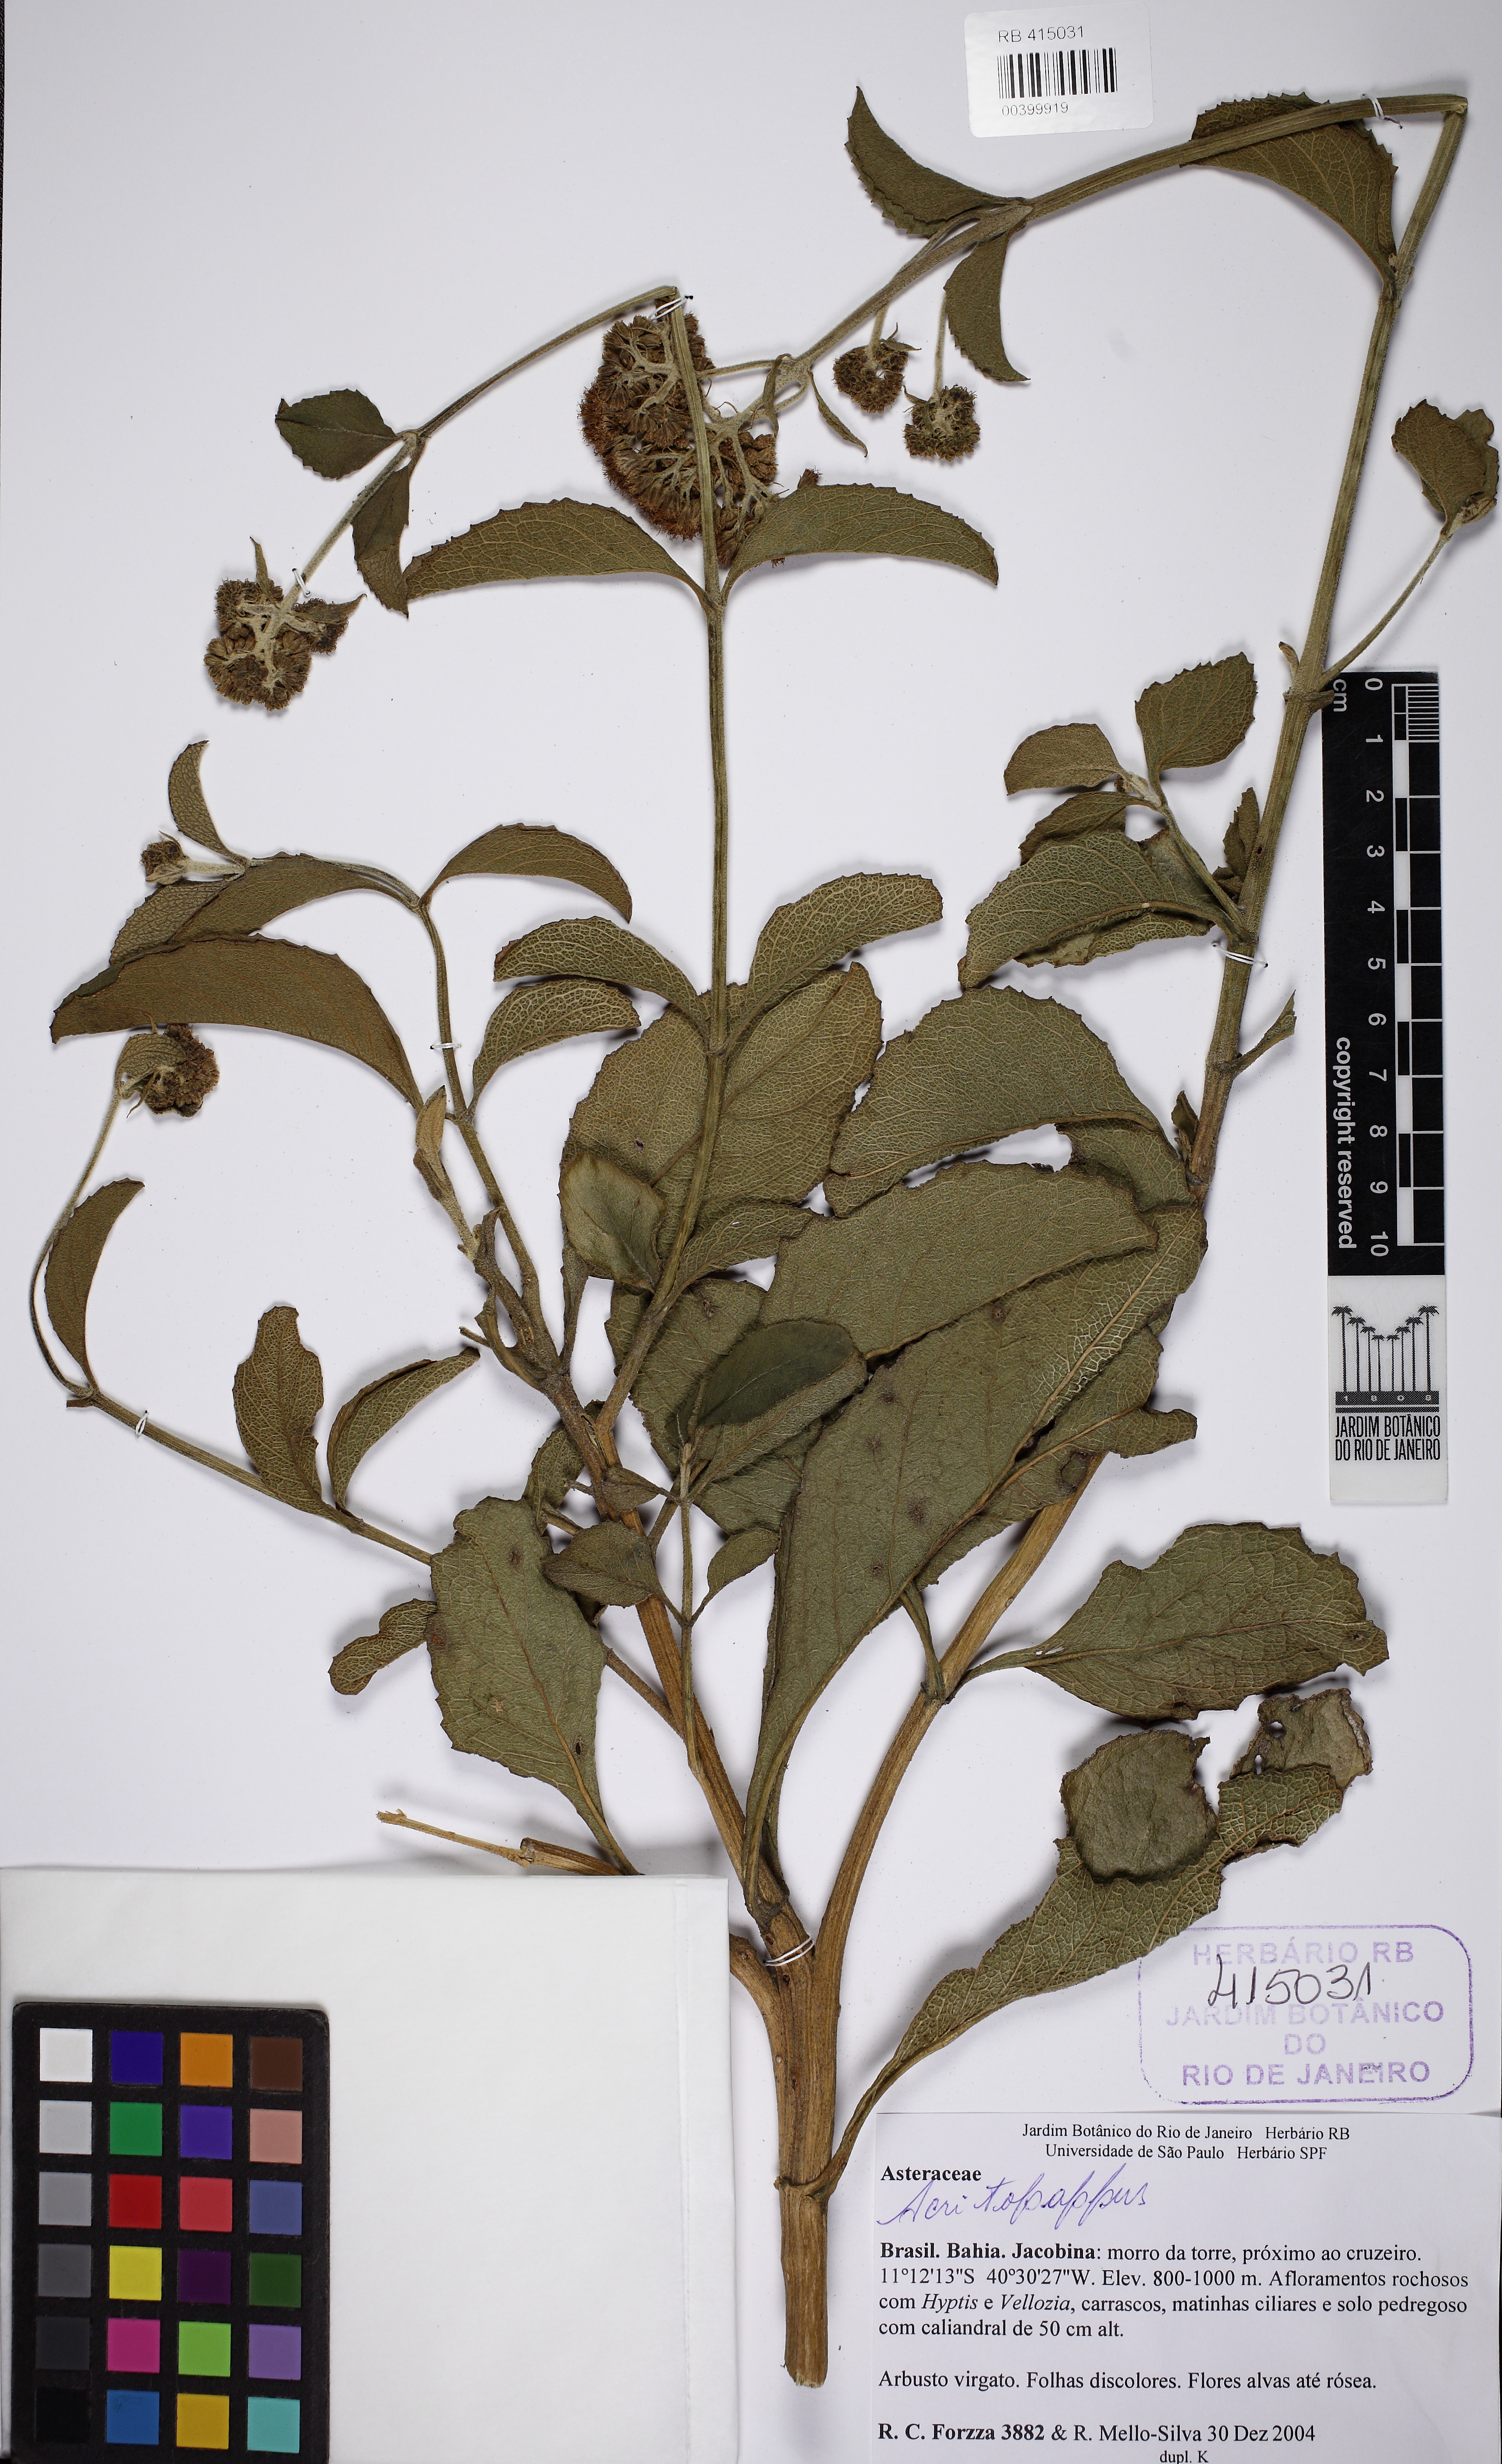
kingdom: Plantae
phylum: Tracheophyta
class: Magnoliopsida
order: Asterales
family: Asteraceae
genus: Acritopappus
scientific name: Acritopappus micropappus
